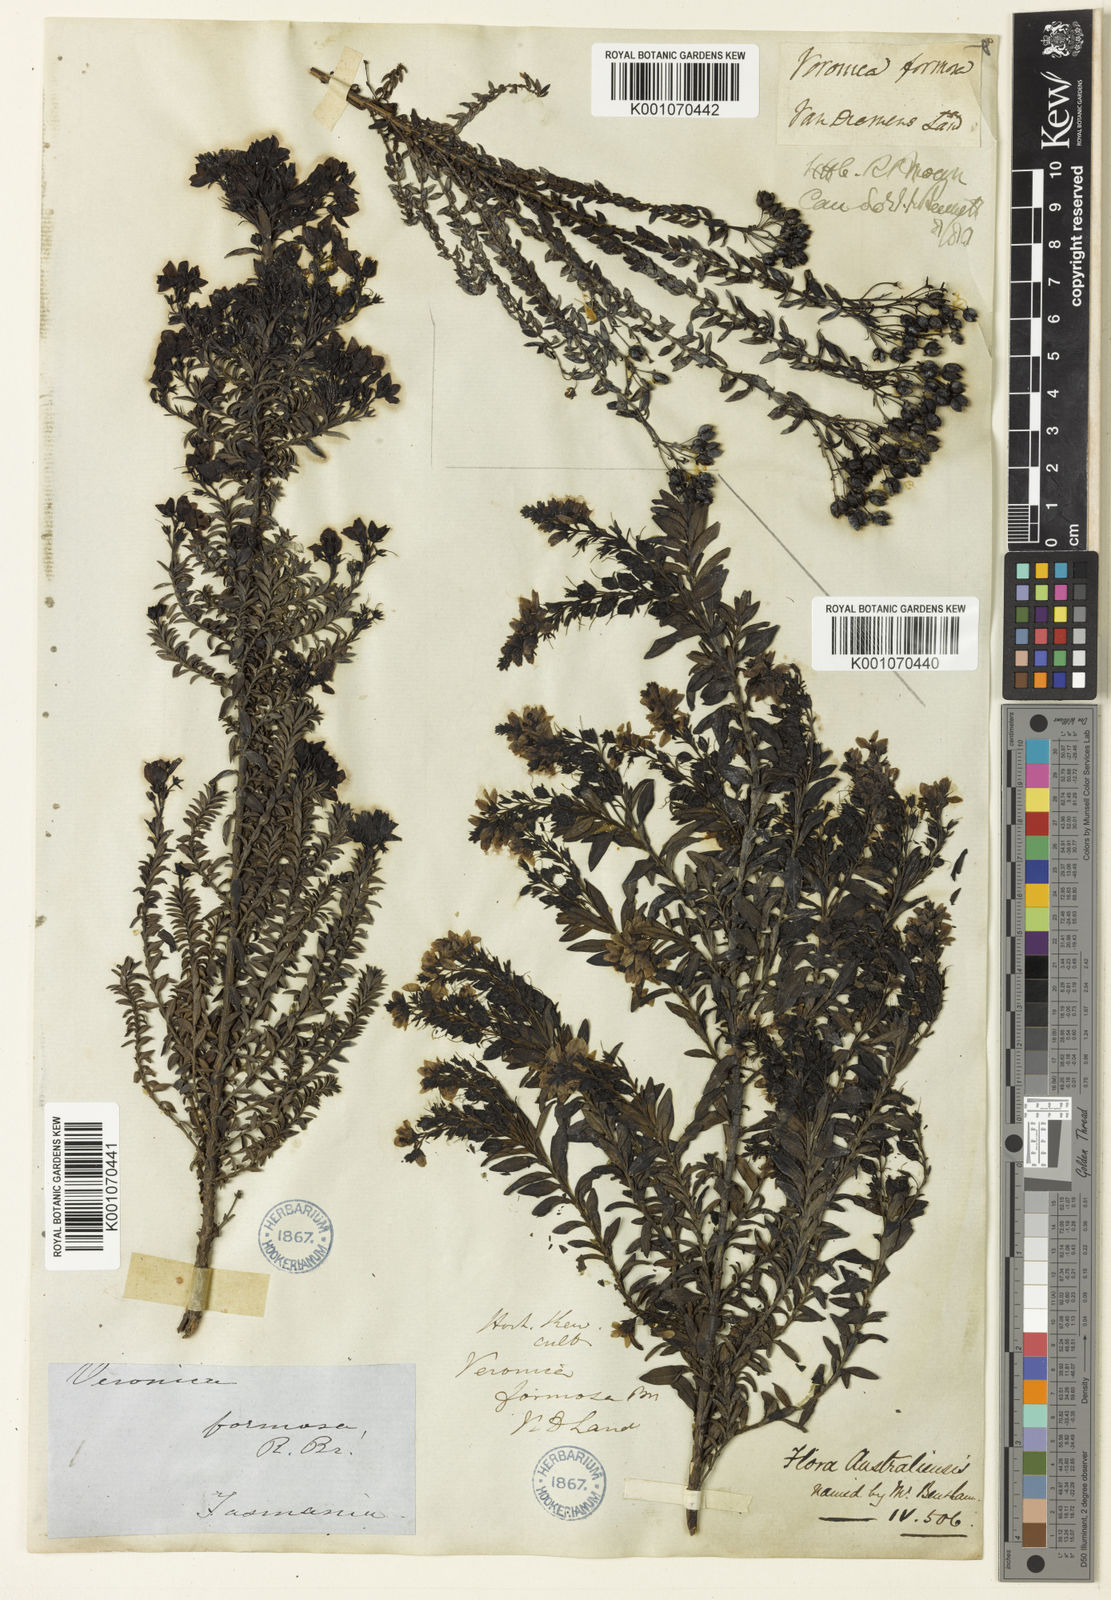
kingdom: Plantae
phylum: Tracheophyta
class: Magnoliopsida
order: Lamiales
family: Plantaginaceae
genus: Veronica
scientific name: Veronica formosa
